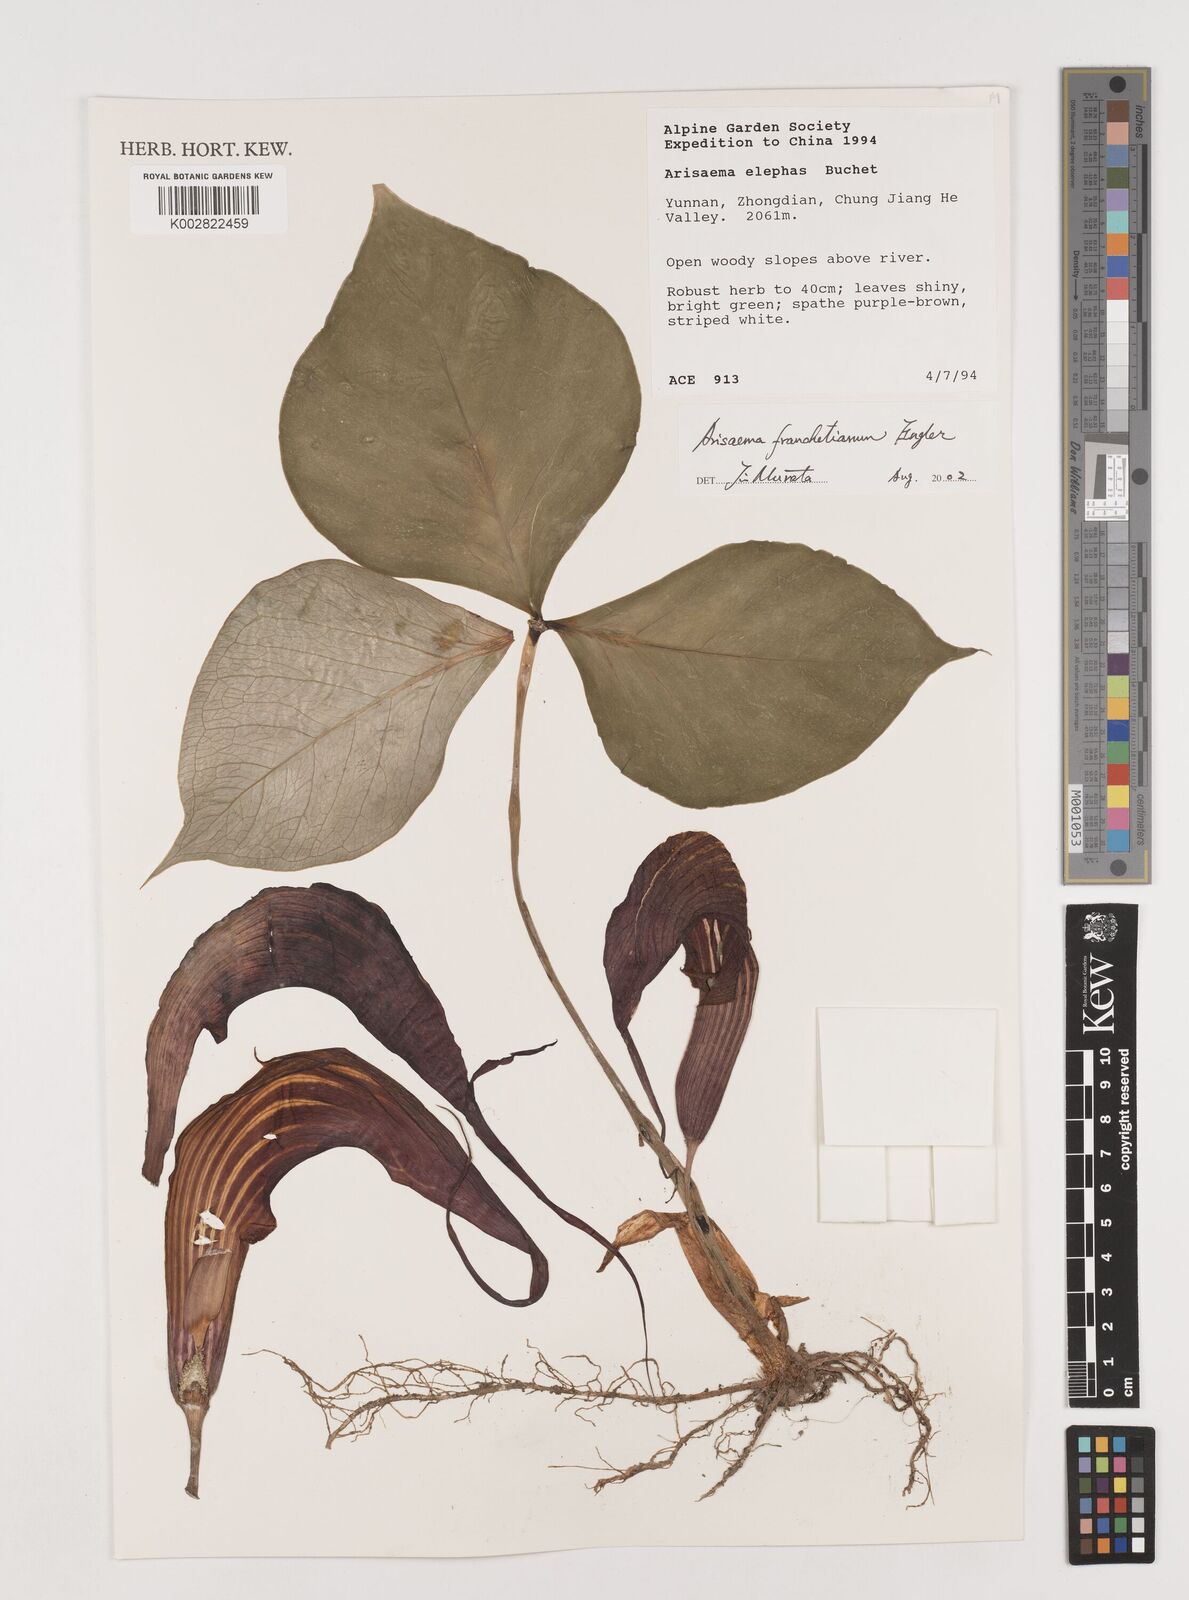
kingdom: Plantae
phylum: Tracheophyta
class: Liliopsida
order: Alismatales
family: Araceae
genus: Arisaema
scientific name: Arisaema franchetianum
